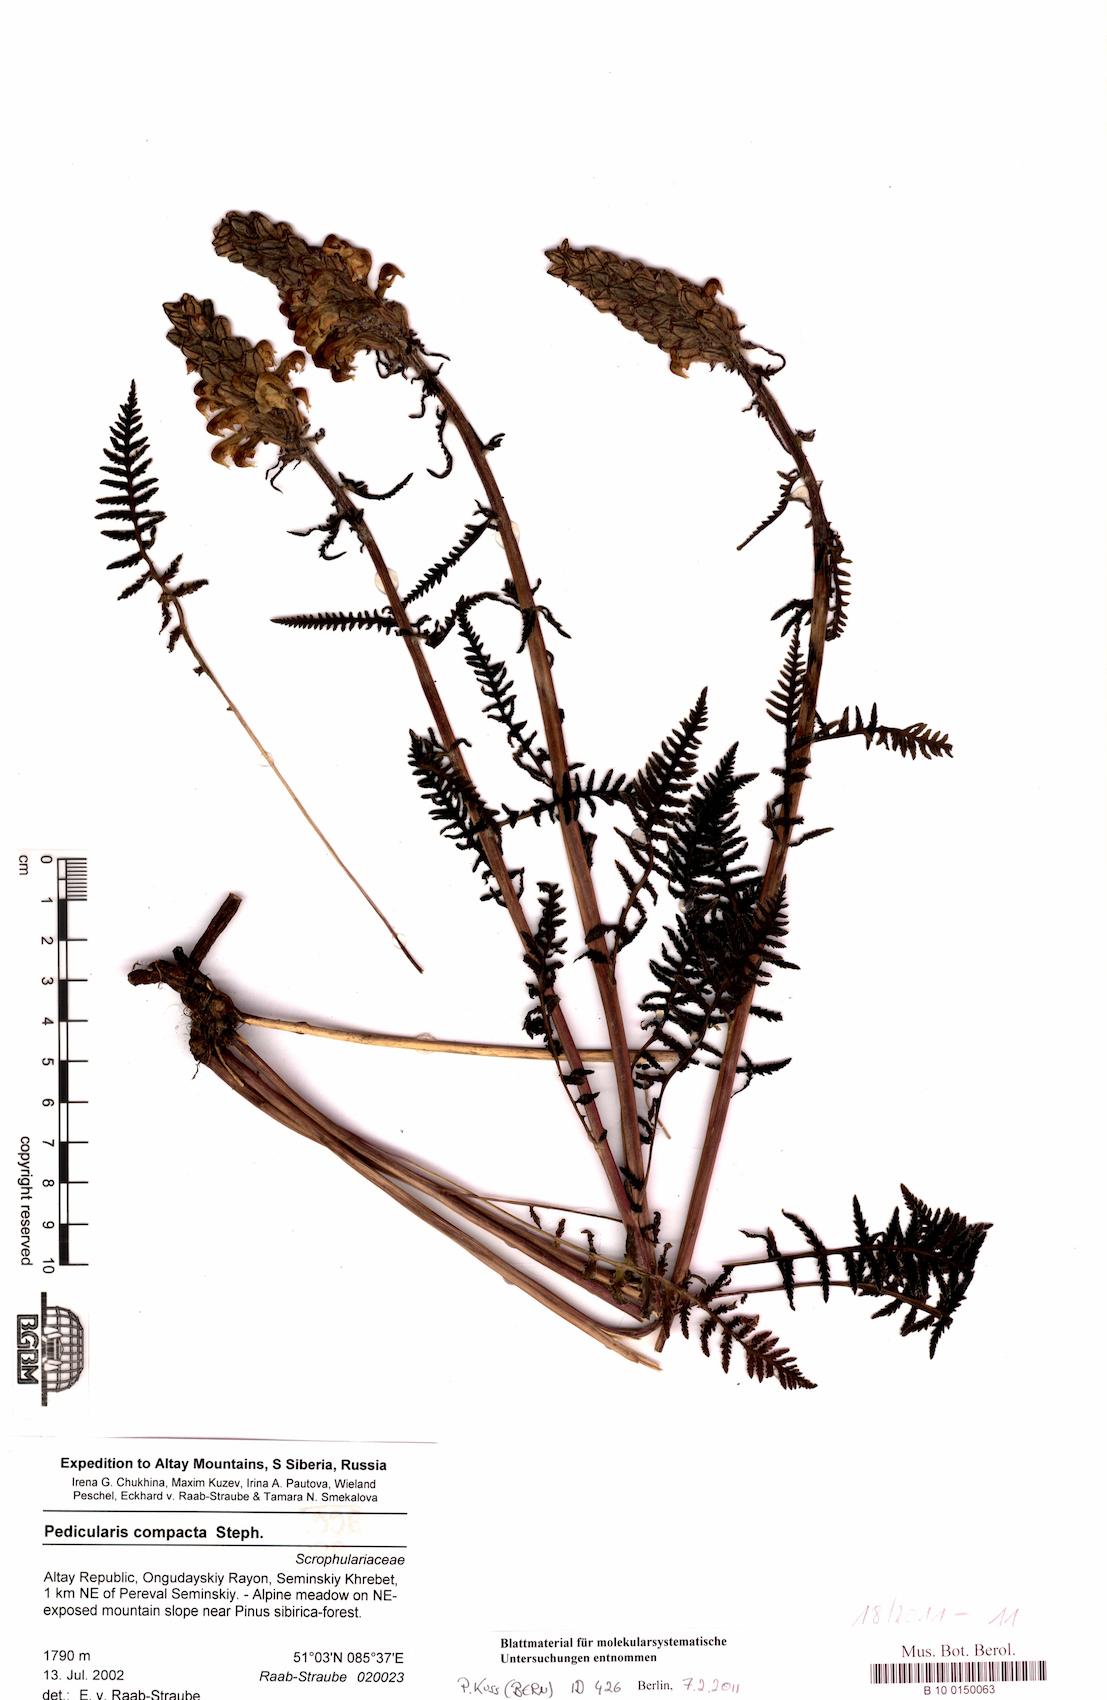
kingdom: Plantae
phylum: Tracheophyta
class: Magnoliopsida
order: Lamiales
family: Orobanchaceae
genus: Pedicularis
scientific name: Pedicularis compacta
